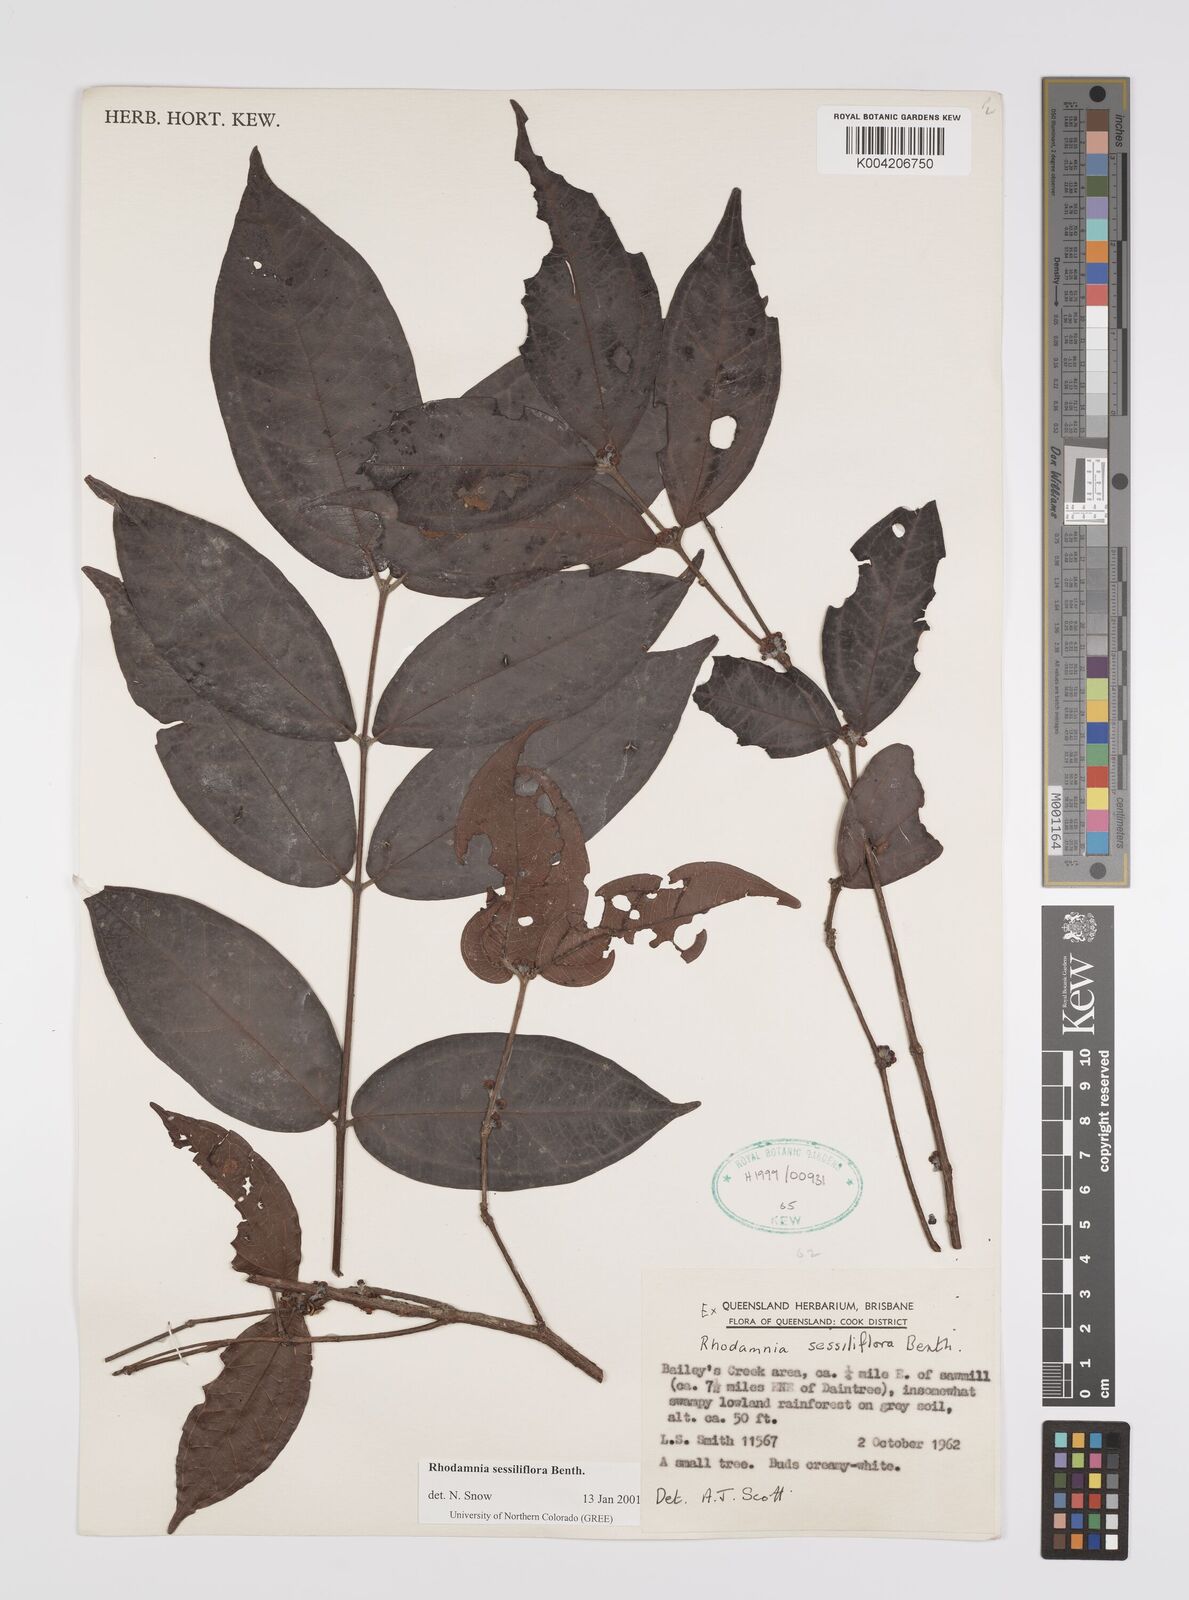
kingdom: Plantae
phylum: Tracheophyta
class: Magnoliopsida
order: Myrtales
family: Myrtaceae
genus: Rhodamnia
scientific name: Rhodamnia sessiliflora
